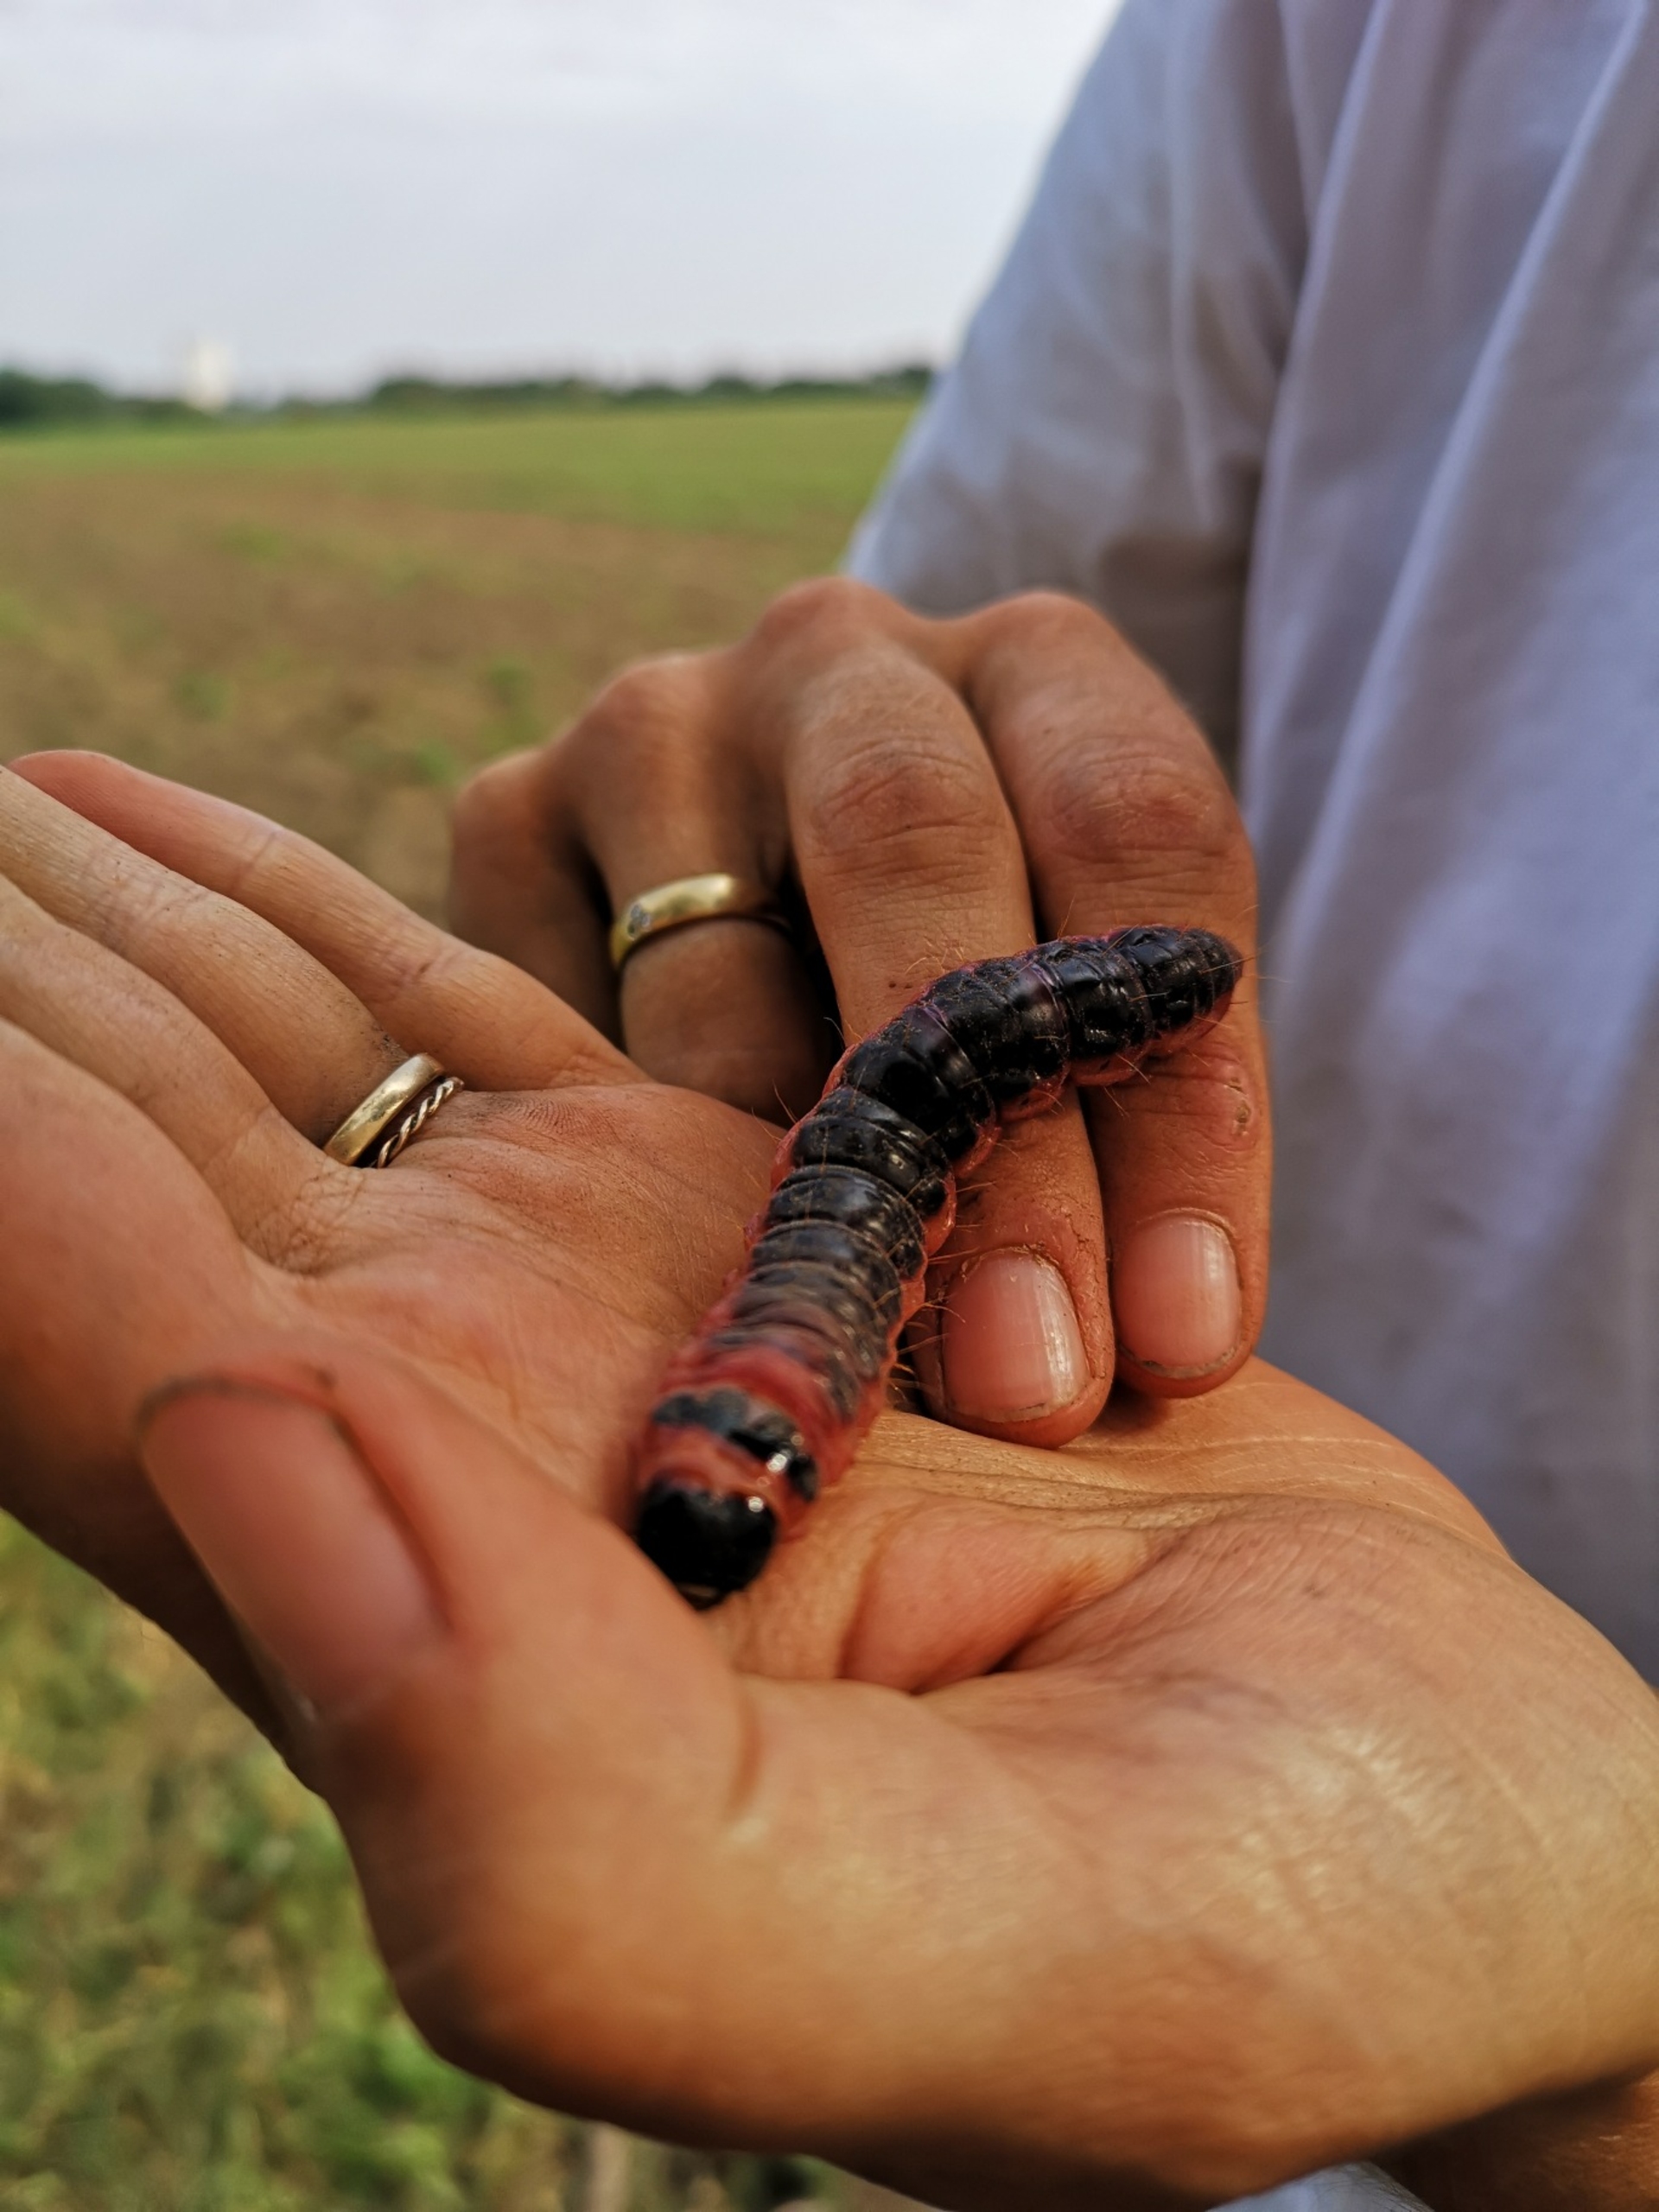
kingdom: Animalia
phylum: Arthropoda
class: Insecta
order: Lepidoptera
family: Cossidae
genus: Cossus
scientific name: Cossus cossus
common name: Pileborer
